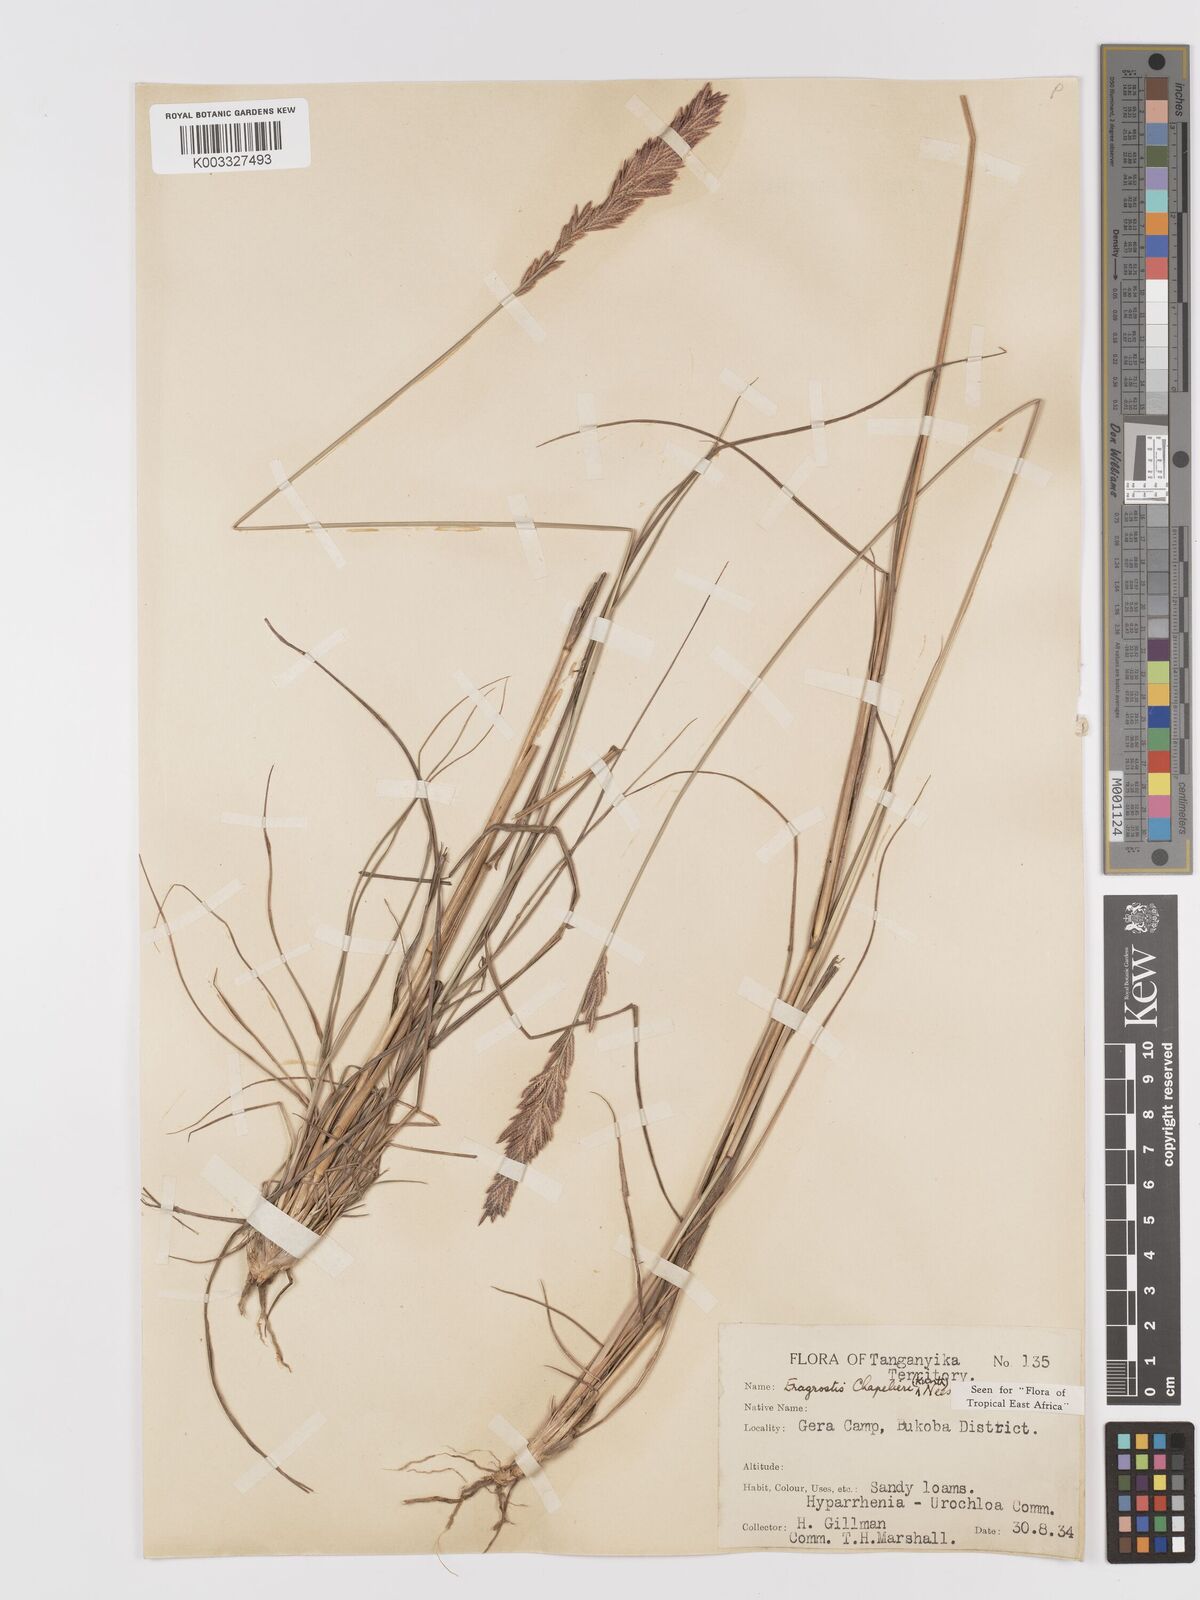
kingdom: Plantae
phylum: Tracheophyta
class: Liliopsida
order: Poales
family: Poaceae
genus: Eragrostis
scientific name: Eragrostis chapelieri
